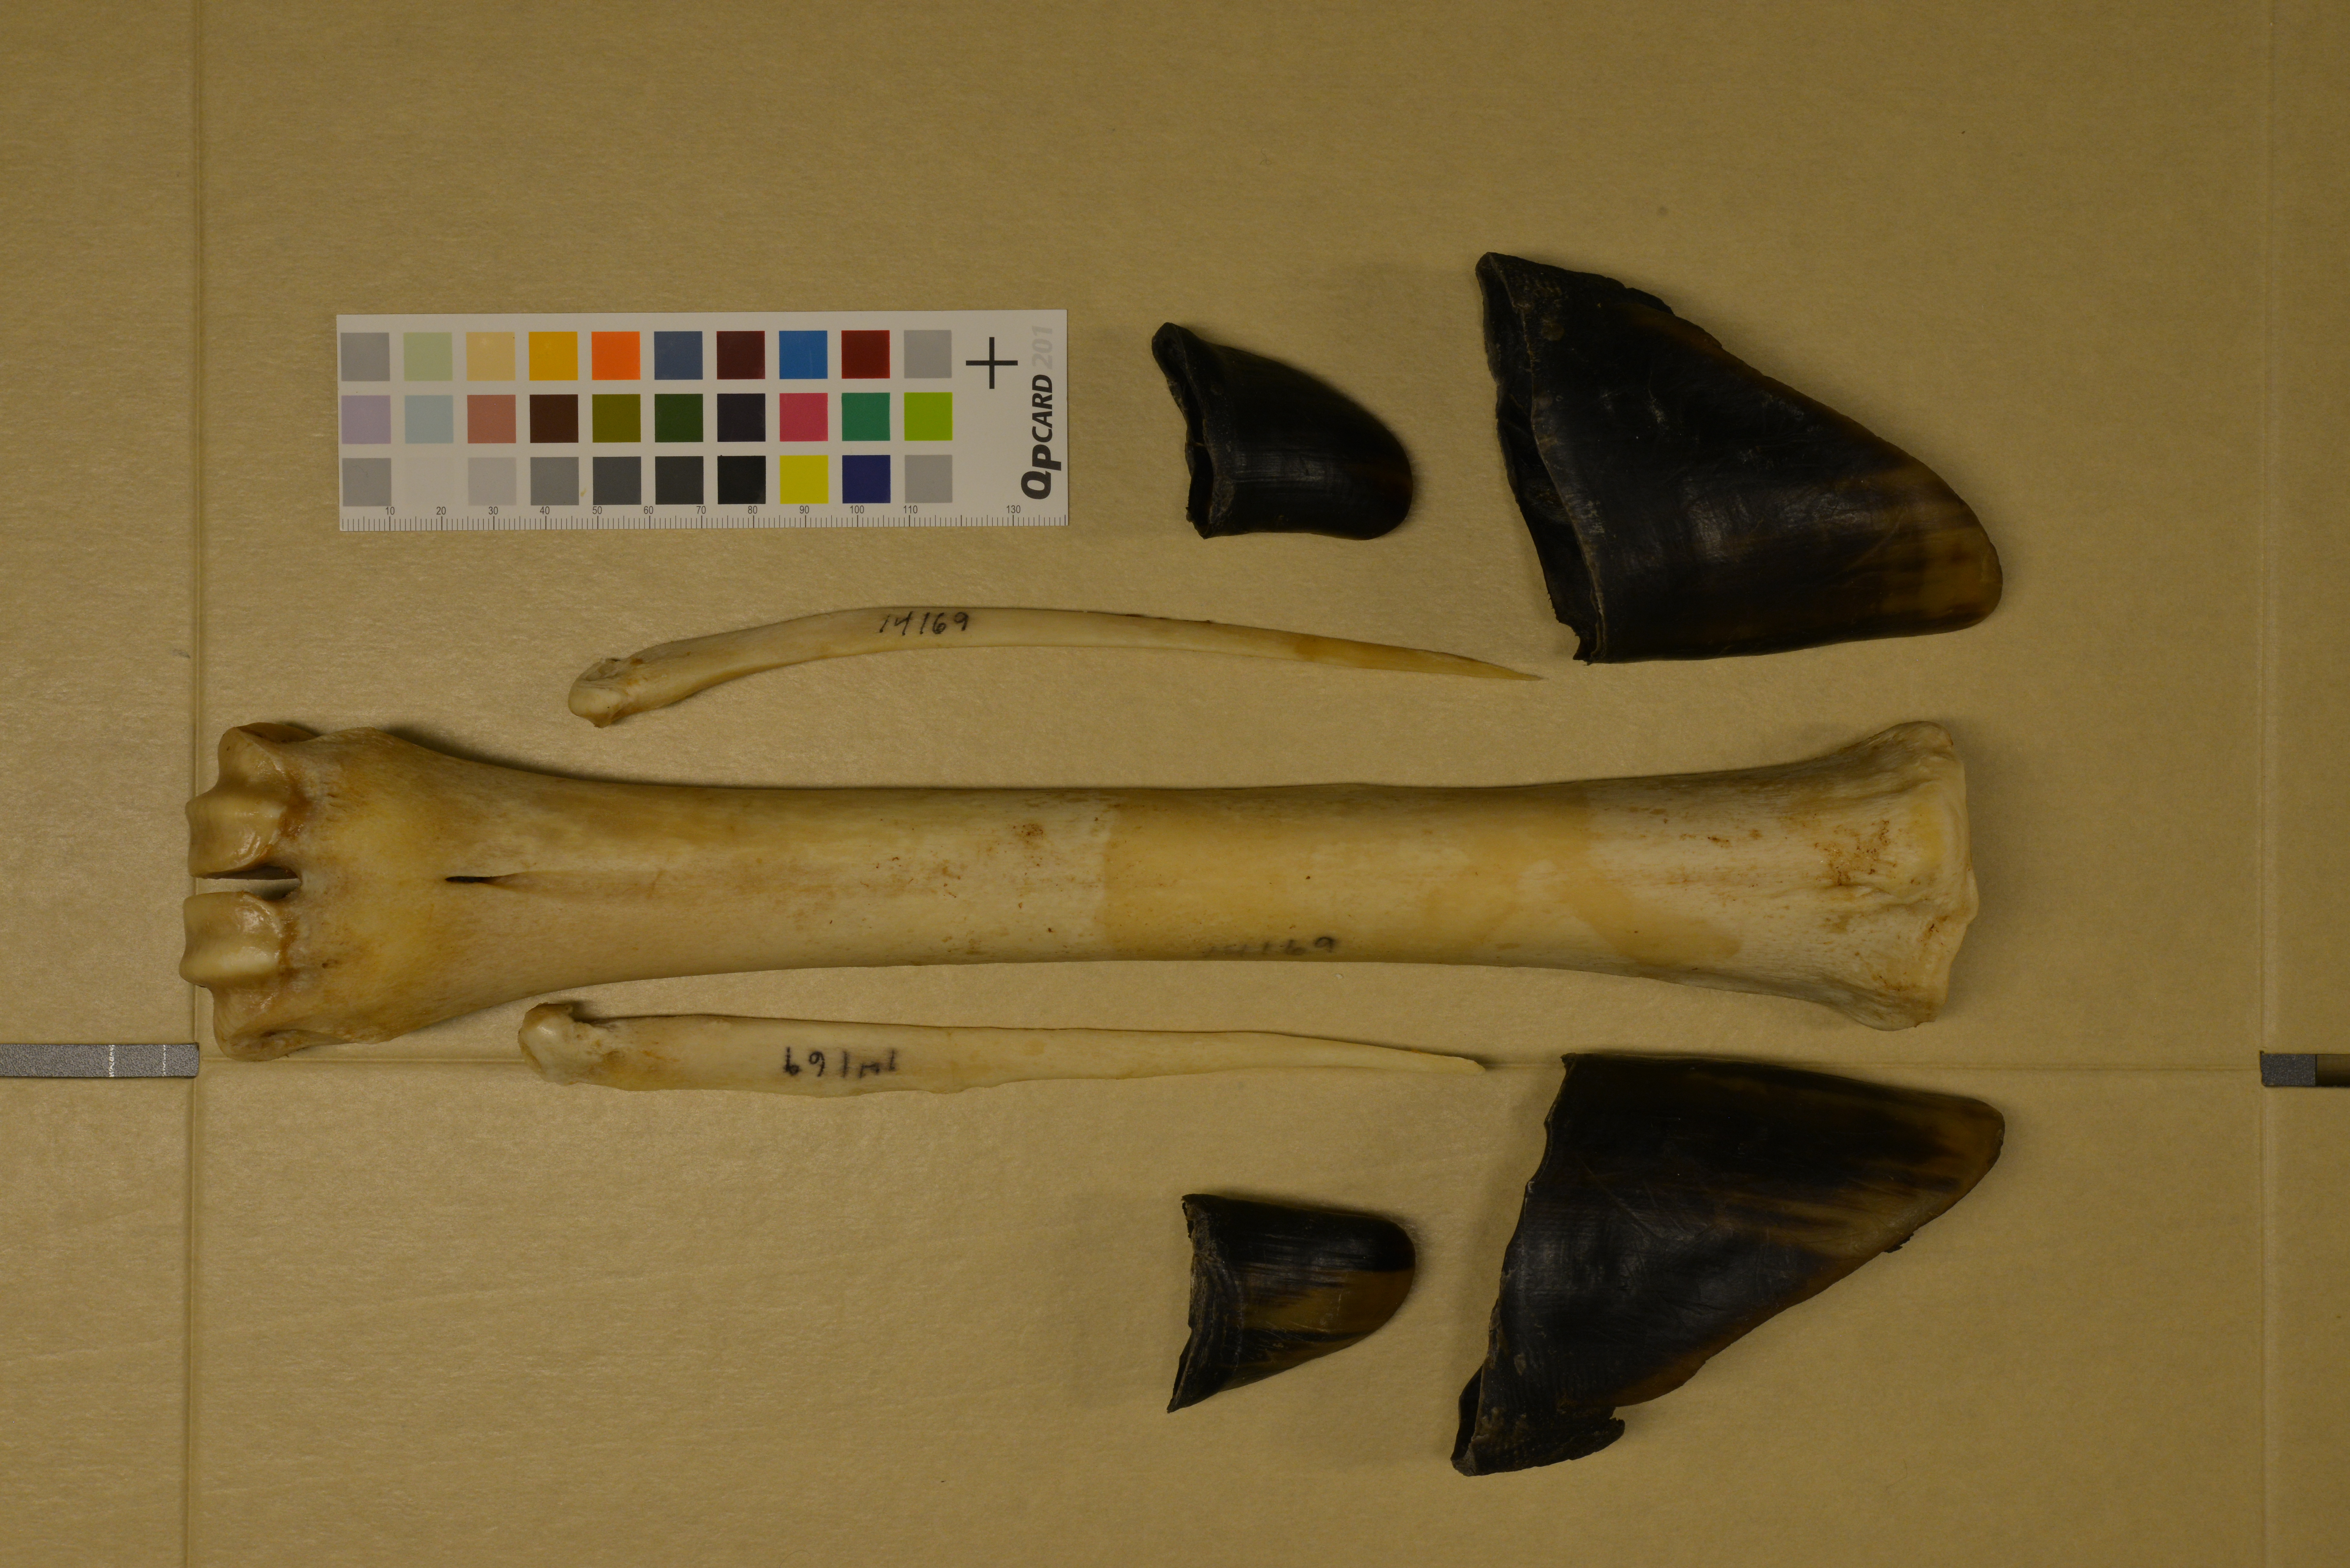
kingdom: Animalia
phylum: Chordata
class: Mammalia
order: Artiodactyla
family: Cervidae
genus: Alces
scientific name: Alces alces
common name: Moose
